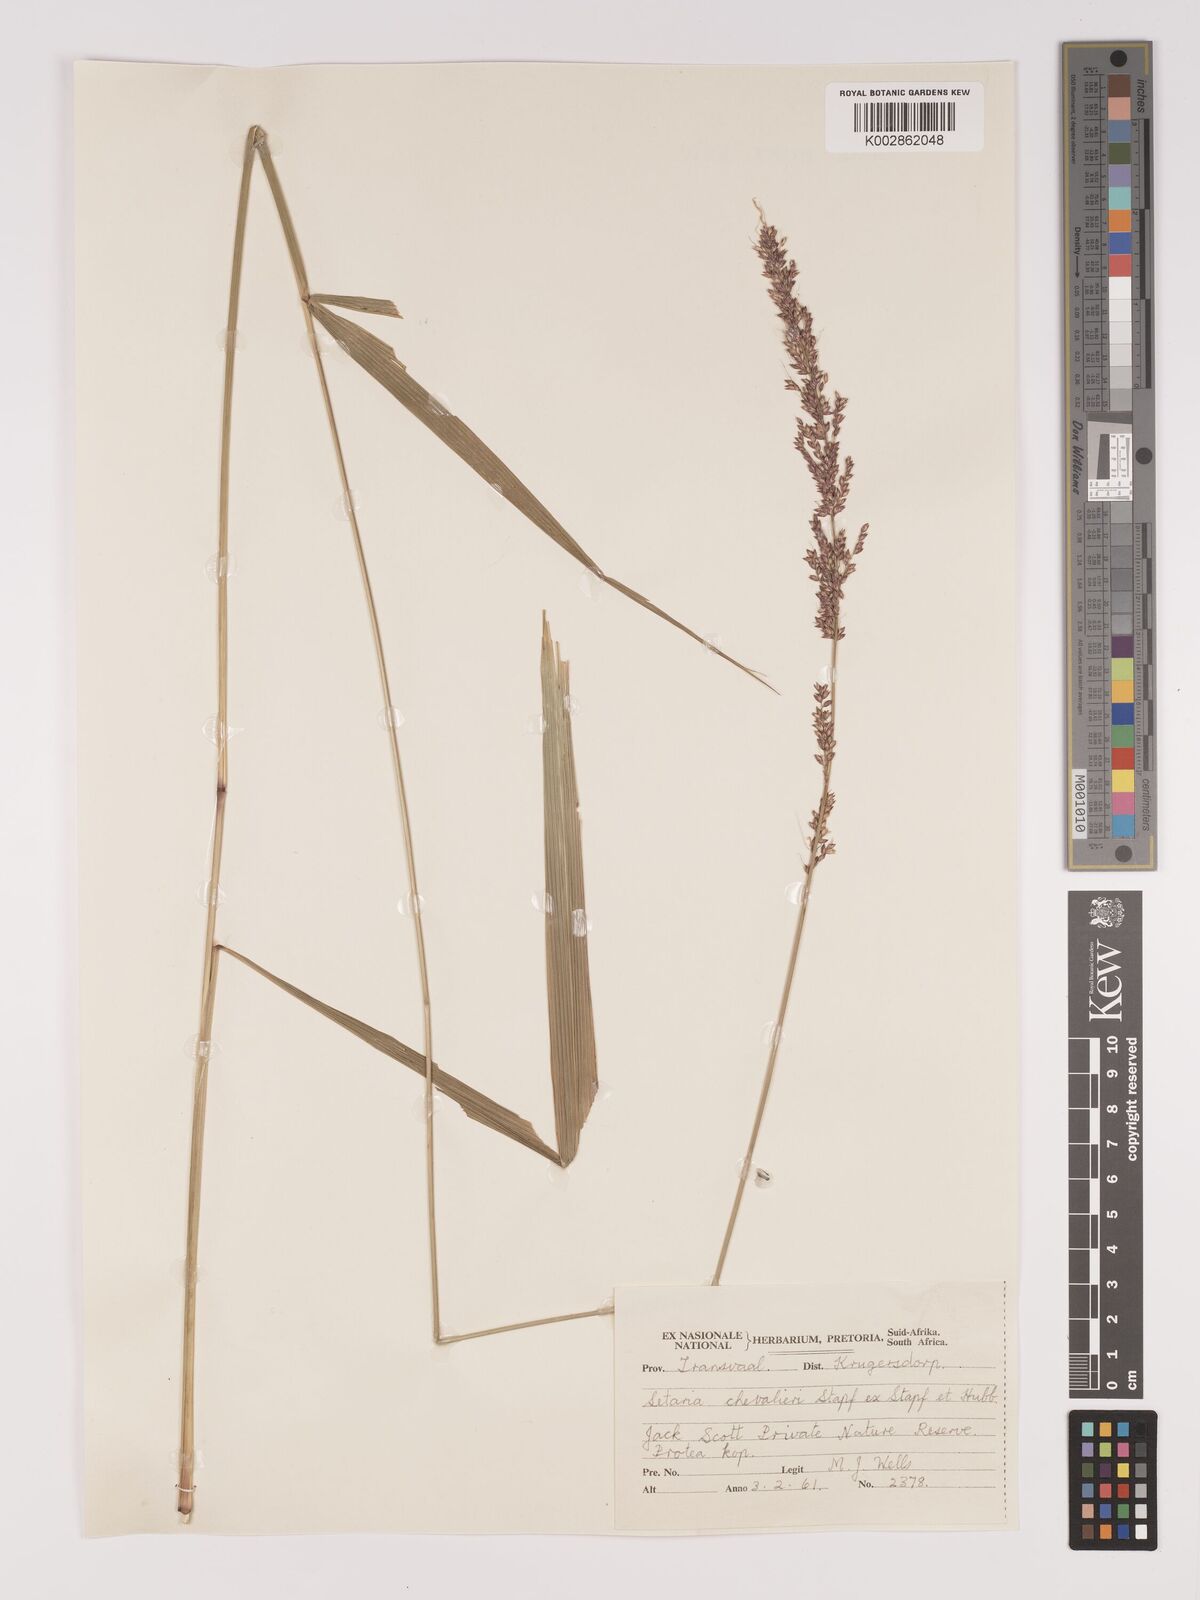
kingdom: Plantae
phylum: Tracheophyta
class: Liliopsida
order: Poales
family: Poaceae
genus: Setaria
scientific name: Setaria megaphylla
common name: Bigleaf bristlegrass
